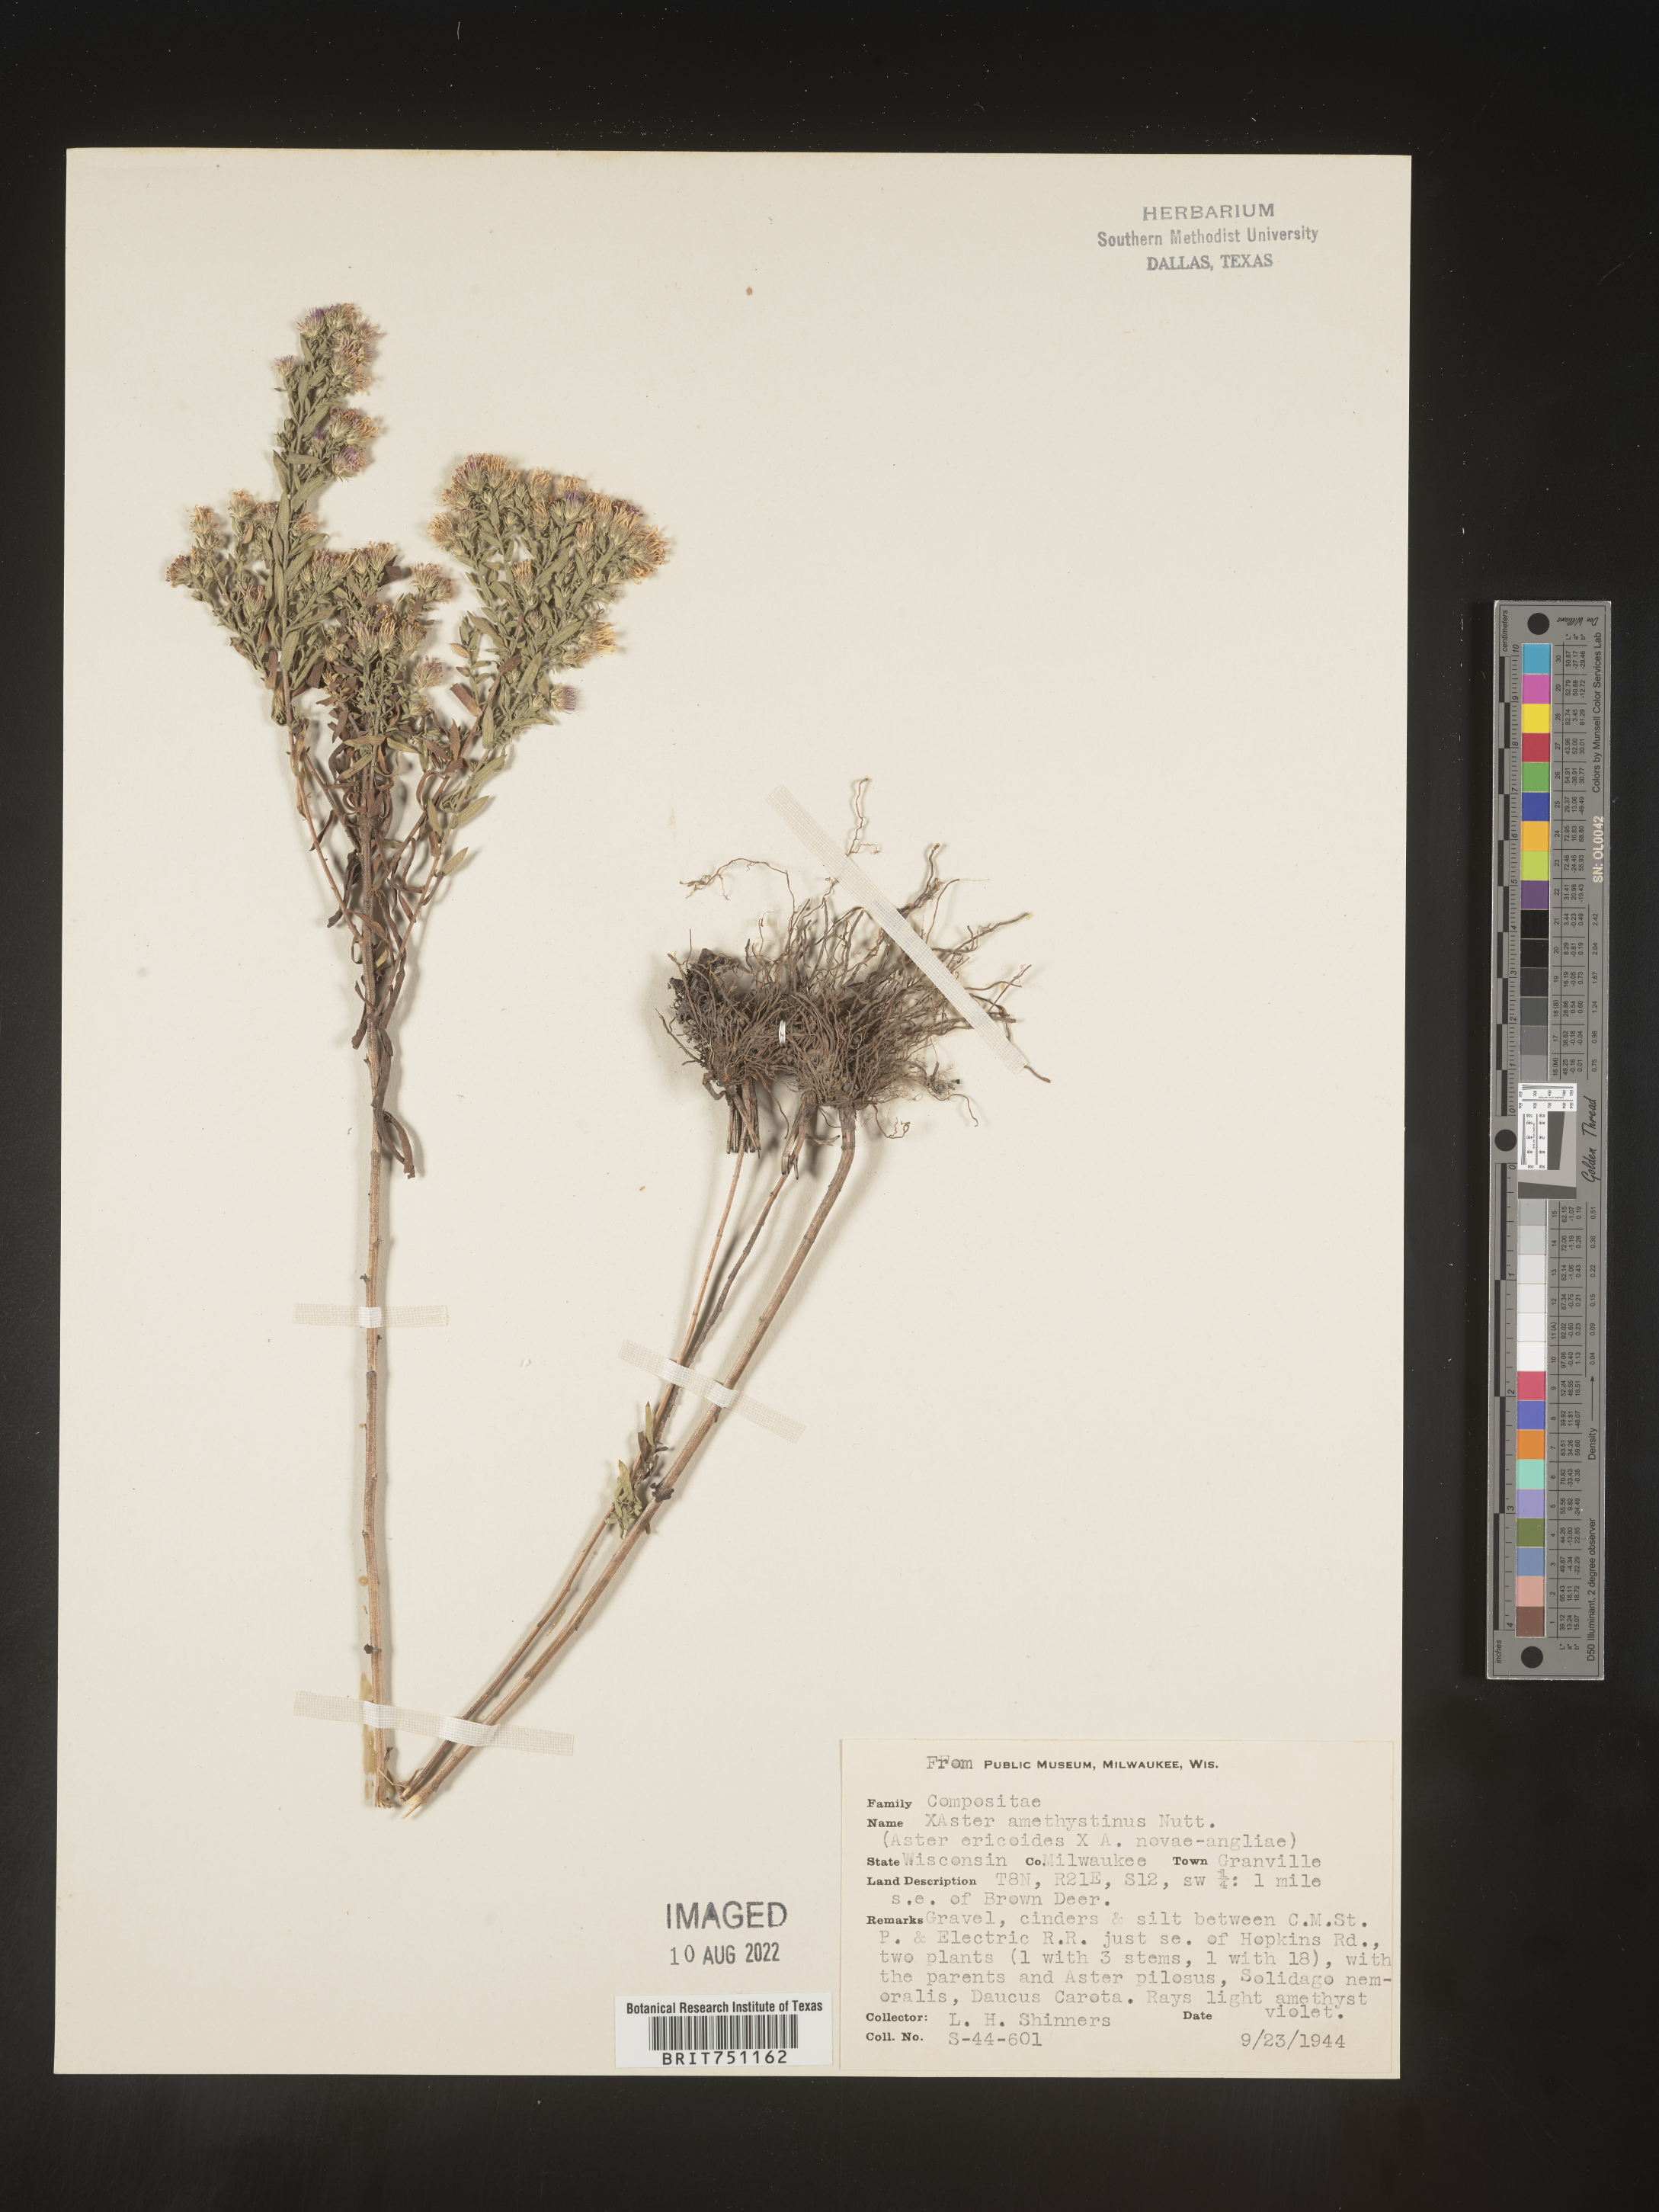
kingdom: Plantae
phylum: Tracheophyta
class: Magnoliopsida
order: Asterales
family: Asteraceae
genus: Symphyotrichum
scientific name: Symphyotrichum amethystinum
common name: Amethyst aster
